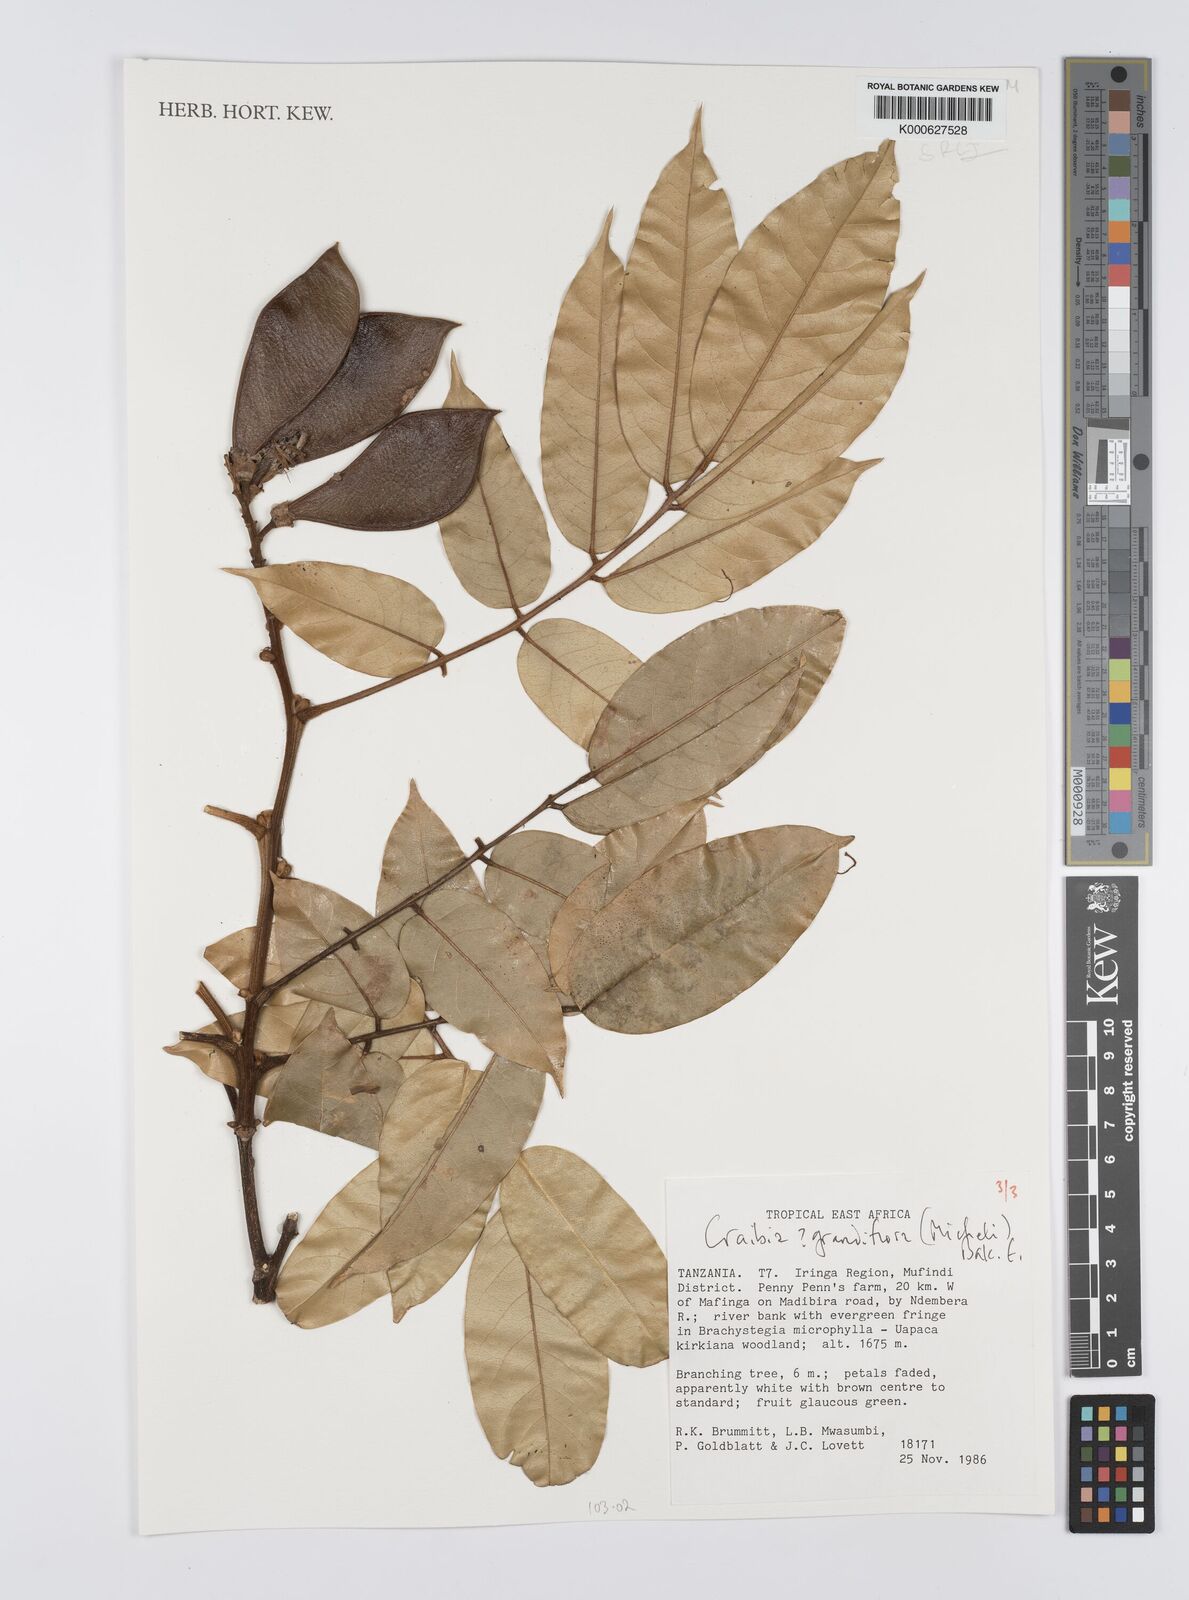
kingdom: Plantae
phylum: Tracheophyta
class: Magnoliopsida
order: Fabales
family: Fabaceae
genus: Craibia
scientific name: Craibia grandiflora
